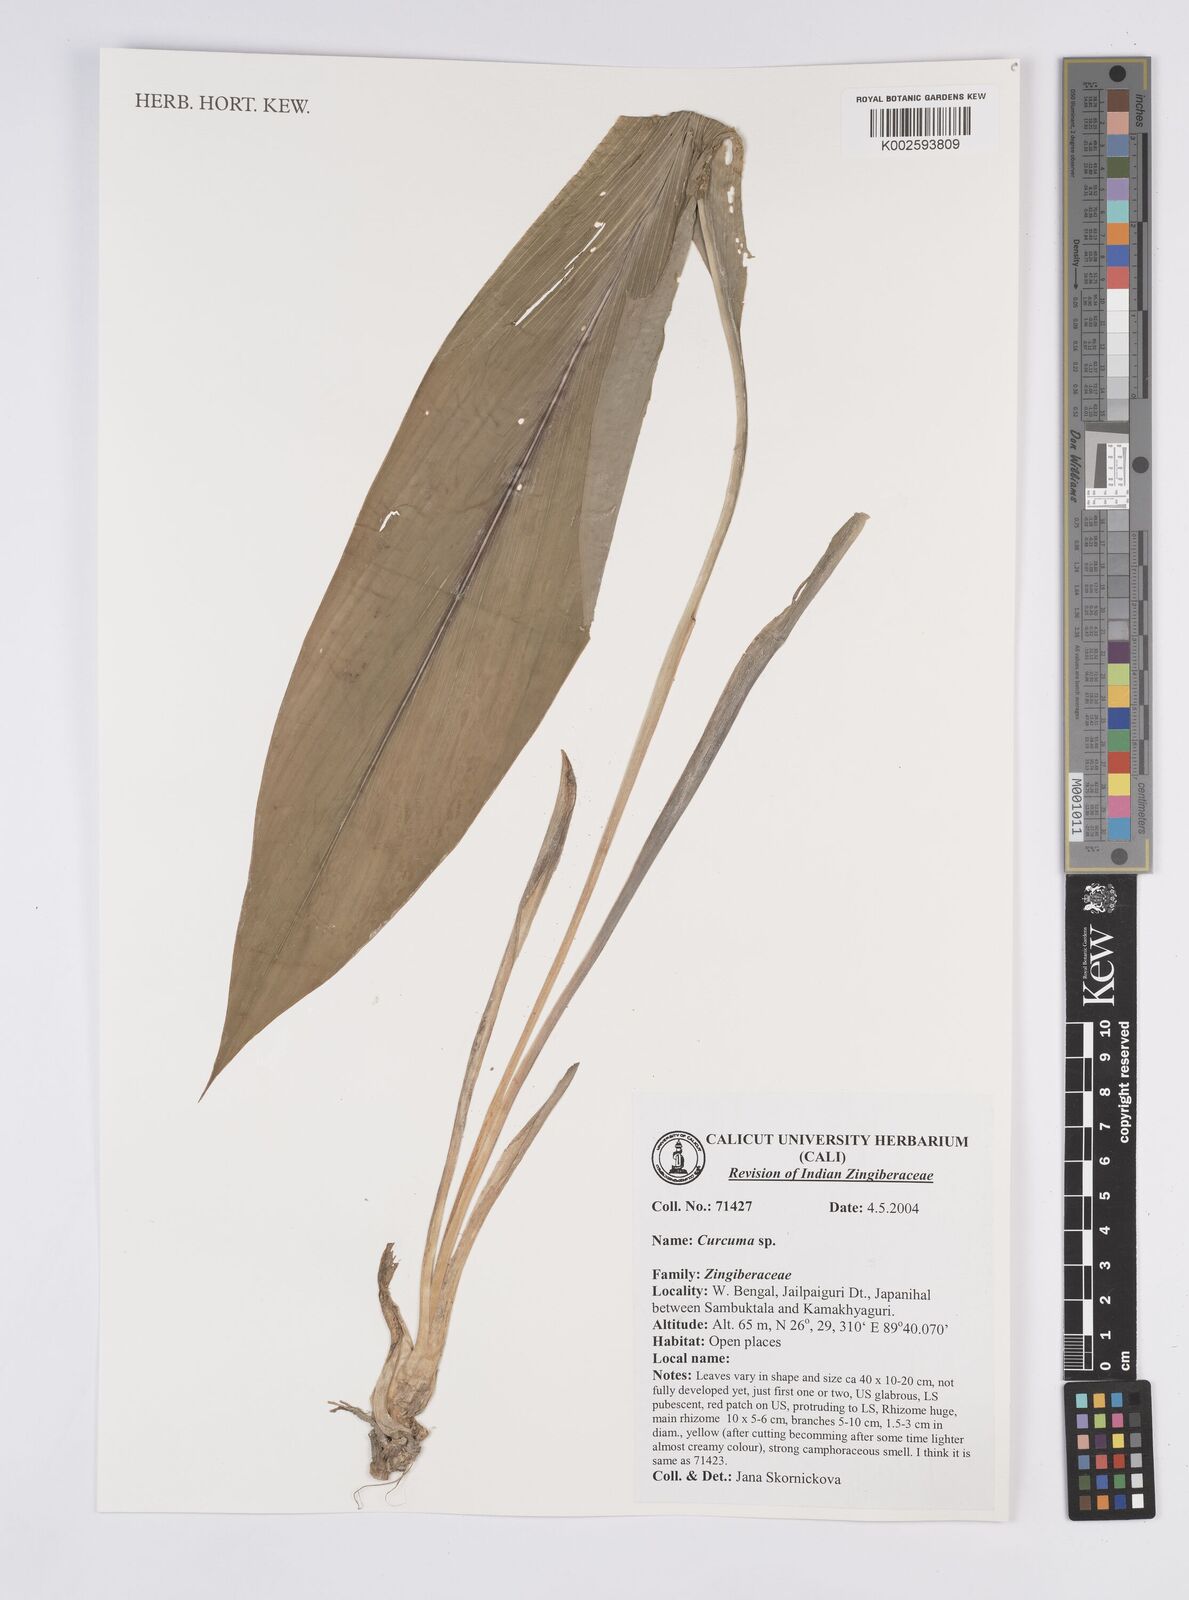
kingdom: Plantae
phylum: Tracheophyta
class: Liliopsida
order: Zingiberales
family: Zingiberaceae
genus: Curcuma
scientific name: Curcuma
